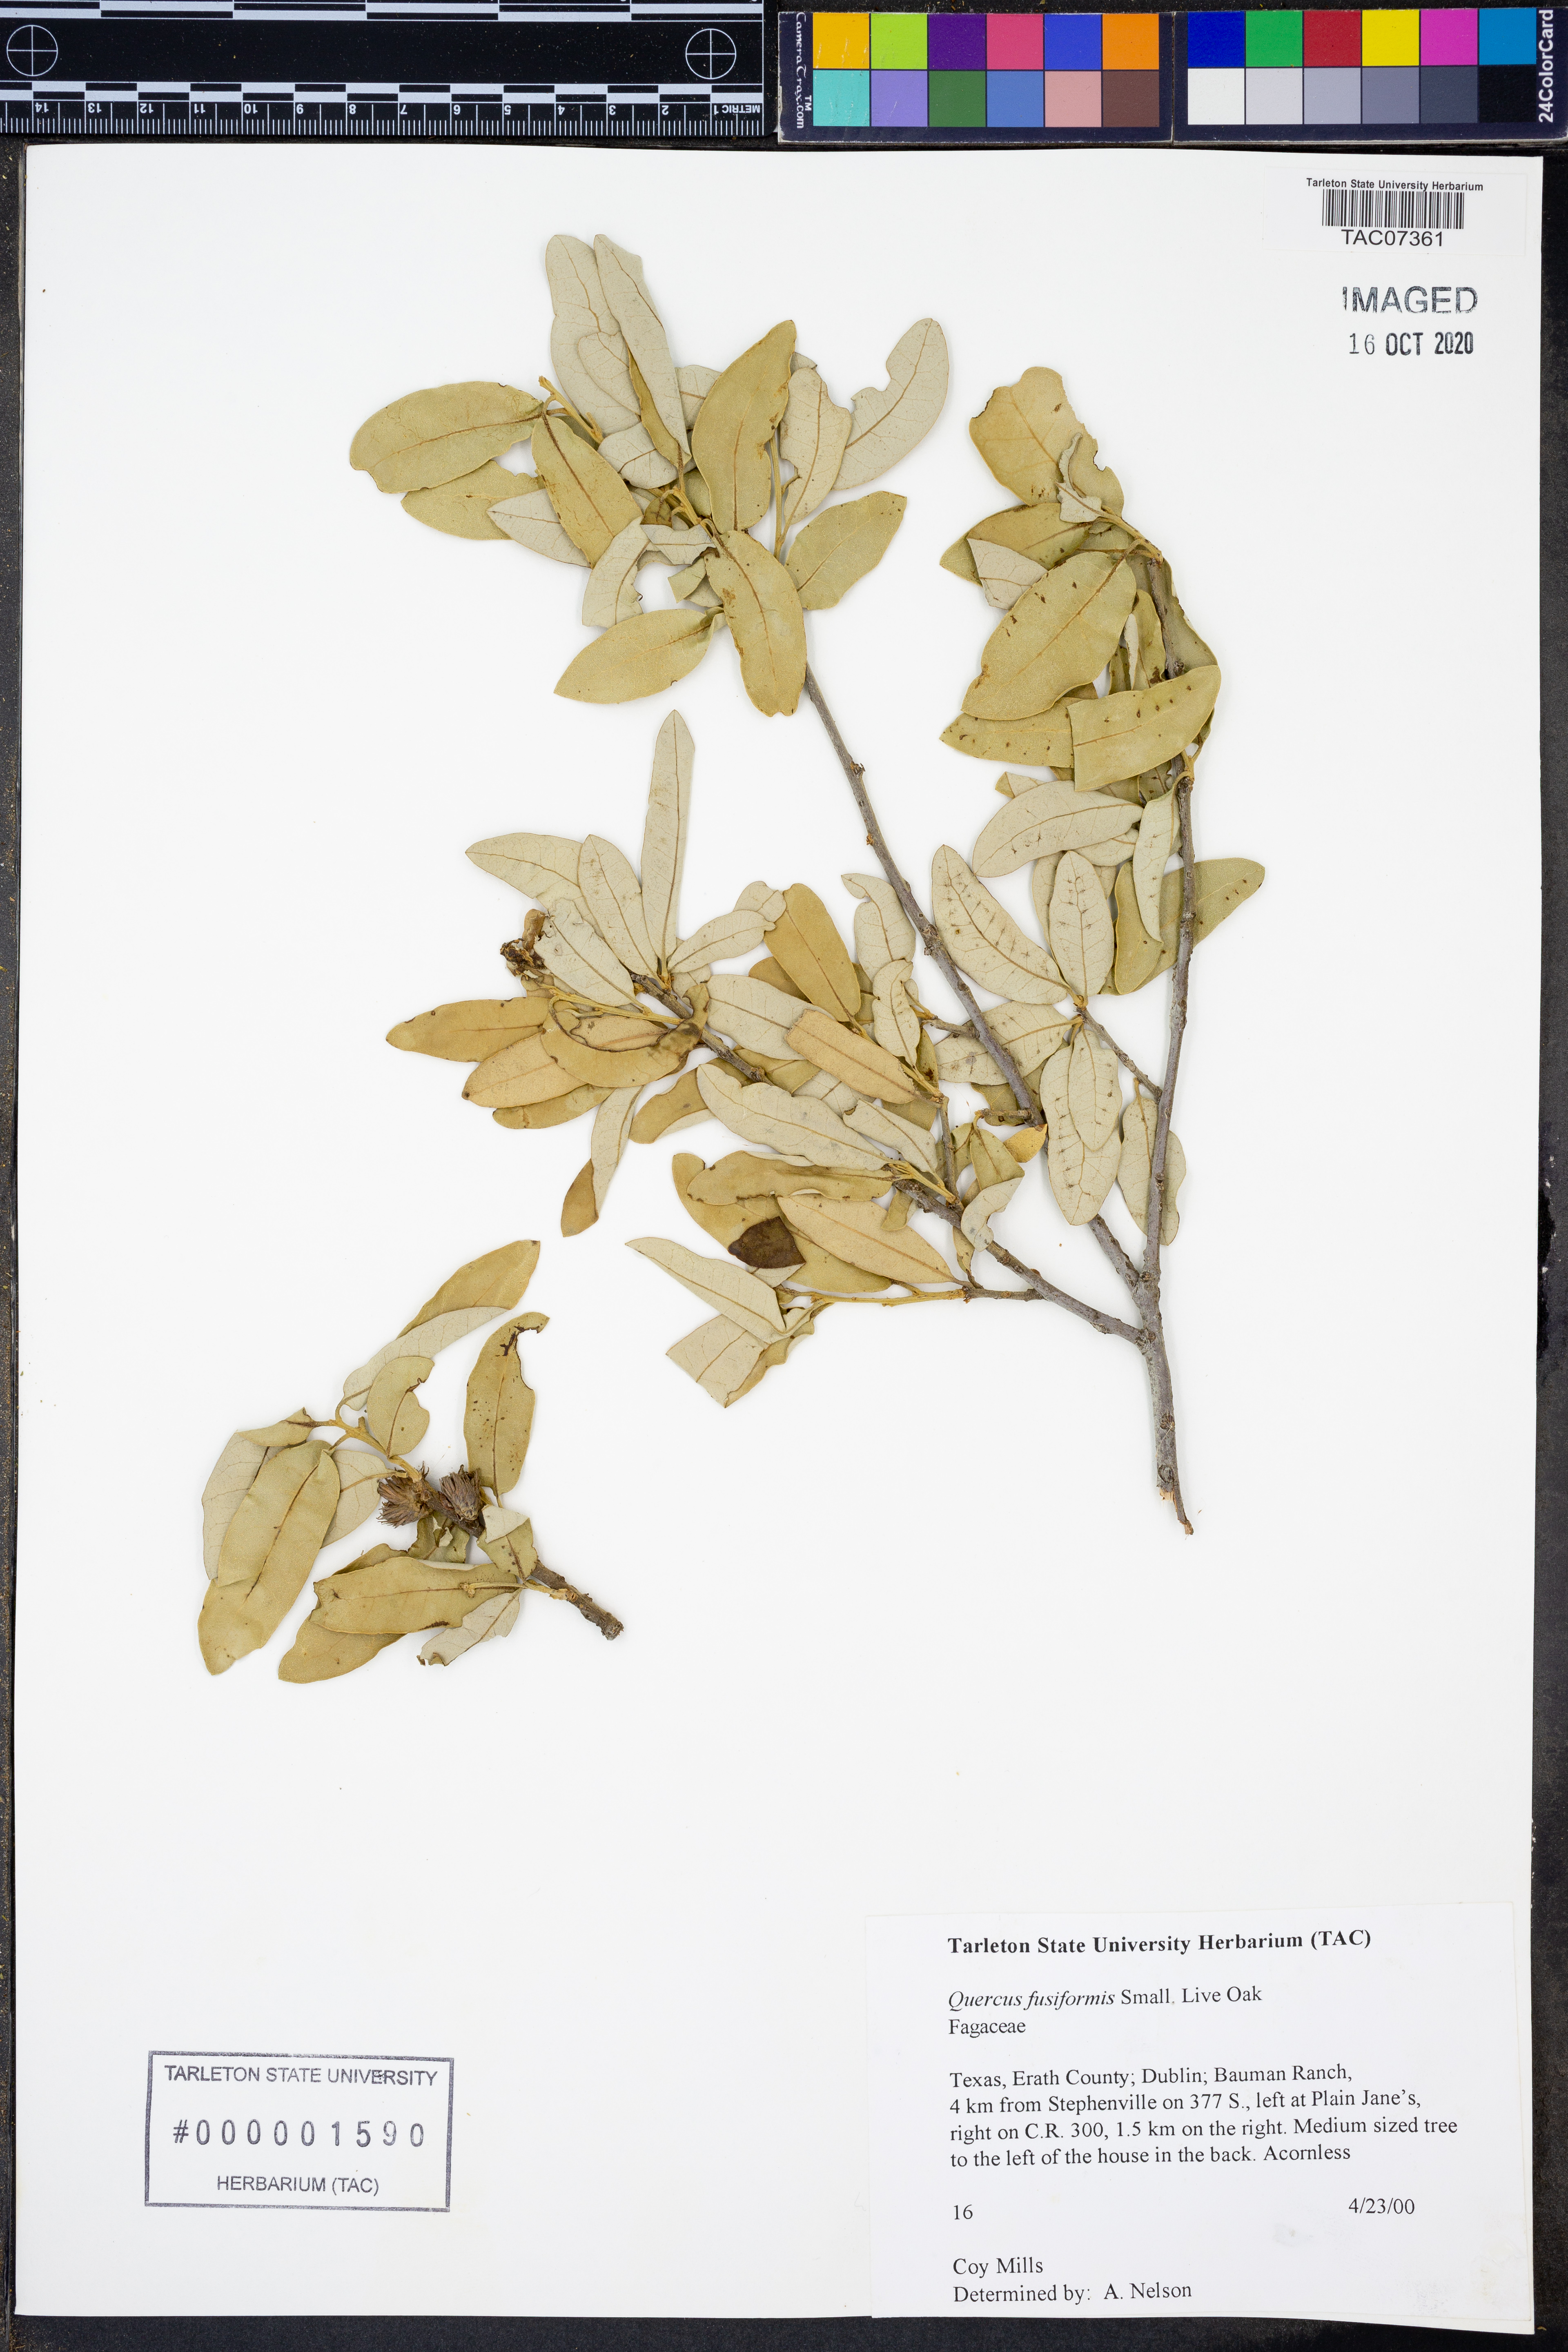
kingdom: Plantae
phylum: Tracheophyta
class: Magnoliopsida
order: Fagales
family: Fagaceae
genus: Quercus
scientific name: Quercus fusiformis
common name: Texas live oak
